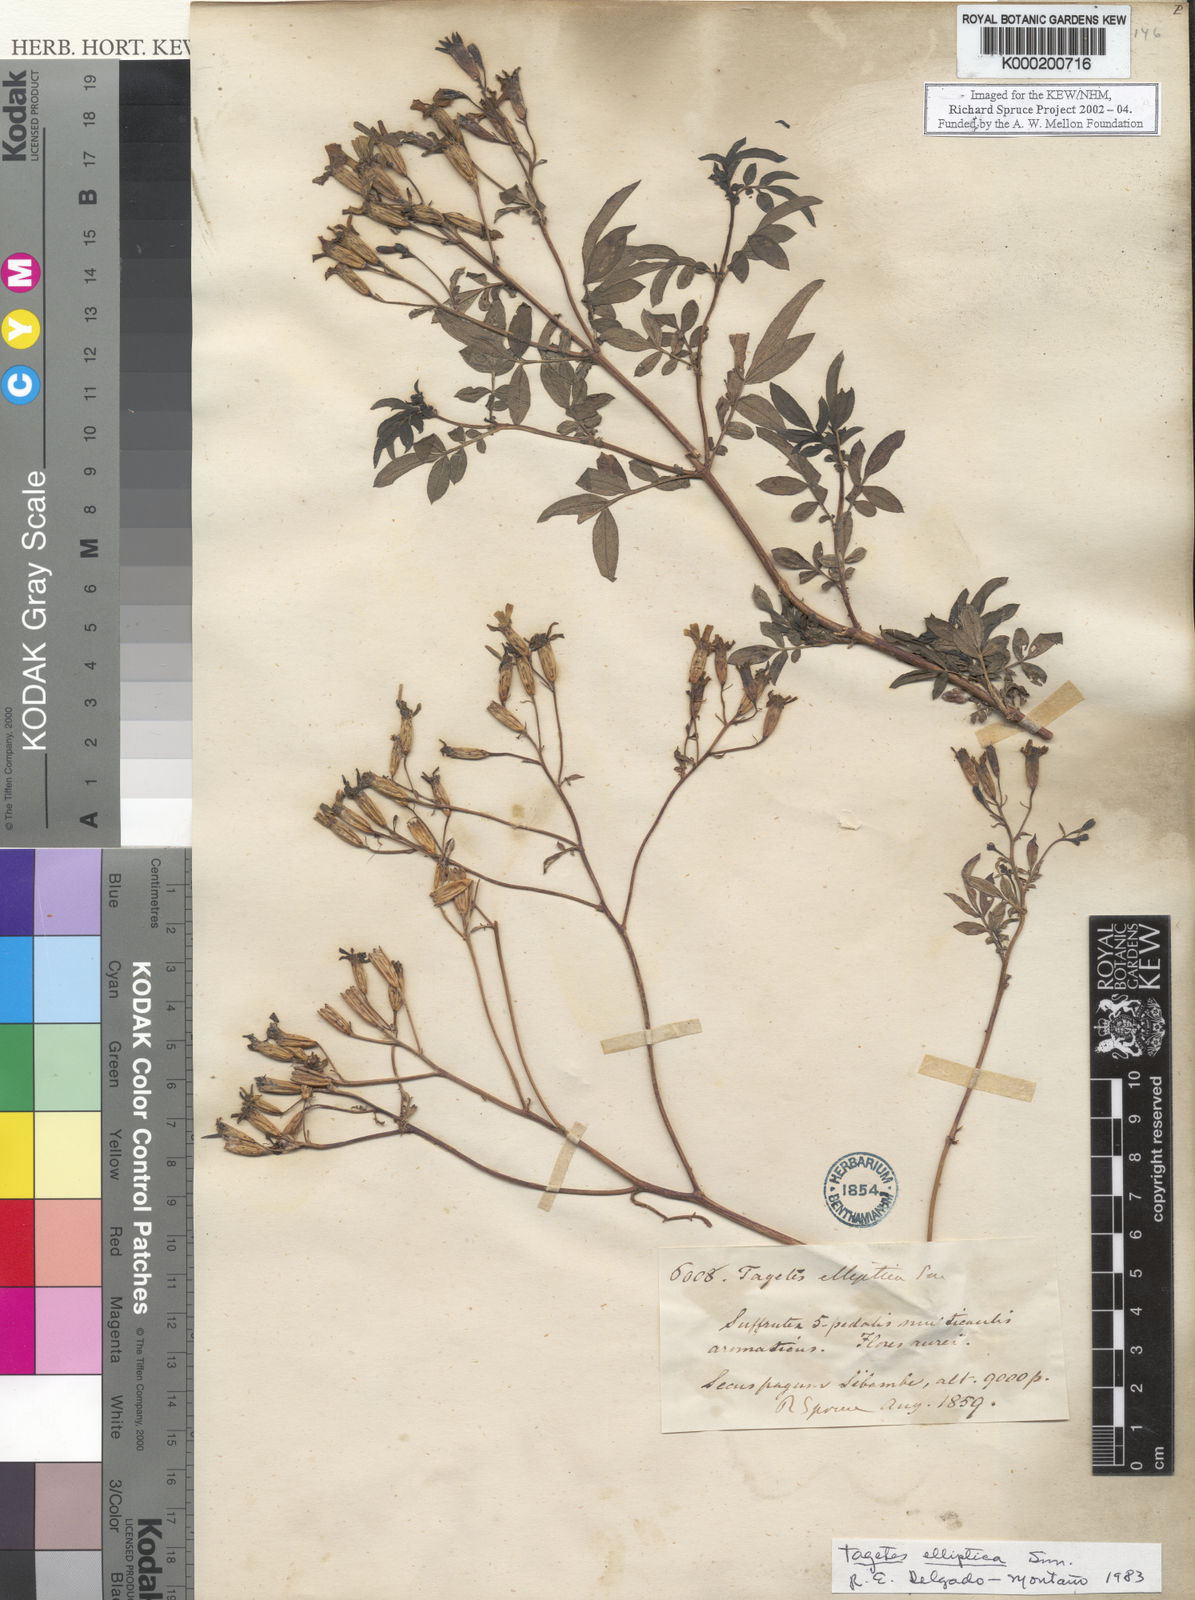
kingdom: Plantae
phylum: Tracheophyta
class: Magnoliopsida
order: Asterales
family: Asteraceae
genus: Tagetes
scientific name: Tagetes elliptica
